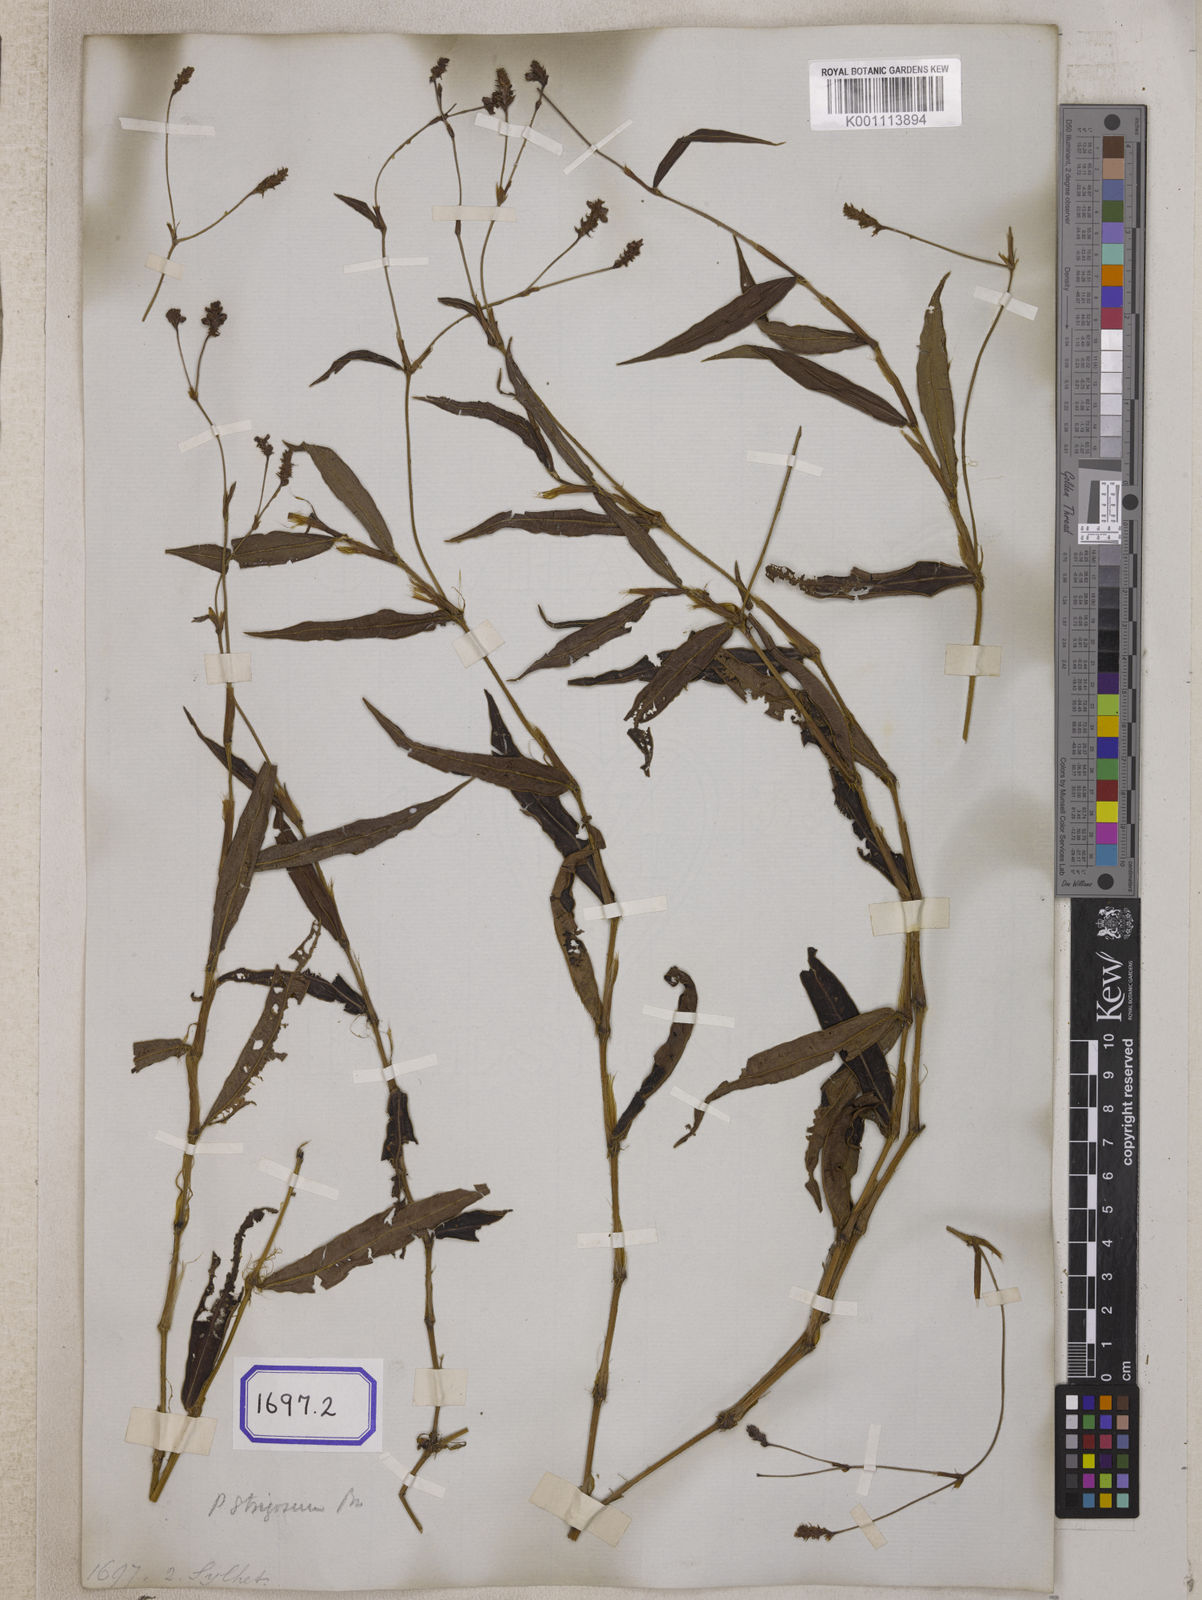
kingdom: Plantae
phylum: Tracheophyta
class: Magnoliopsida
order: Caryophyllales
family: Polygonaceae
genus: Persicaria
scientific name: Persicaria muricata
